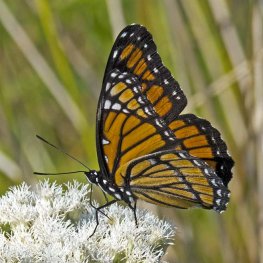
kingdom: Animalia
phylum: Arthropoda
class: Insecta
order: Lepidoptera
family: Nymphalidae
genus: Limenitis
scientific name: Limenitis archippus
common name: Viceroy
